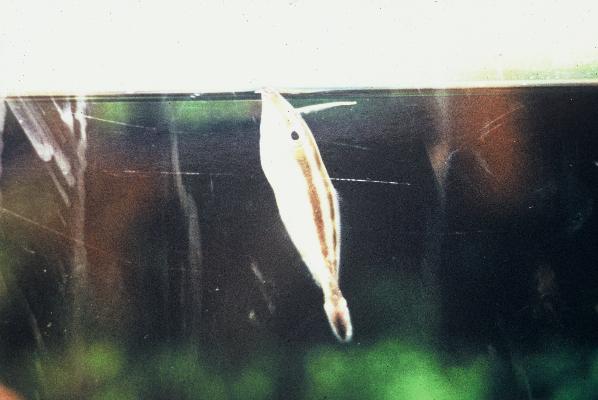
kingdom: Animalia
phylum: Chordata
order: Tetraodontiformes
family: Monacanthidae
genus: Pseudalutarius
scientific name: Pseudalutarius nasicornis
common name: Rhinoceros filefish
